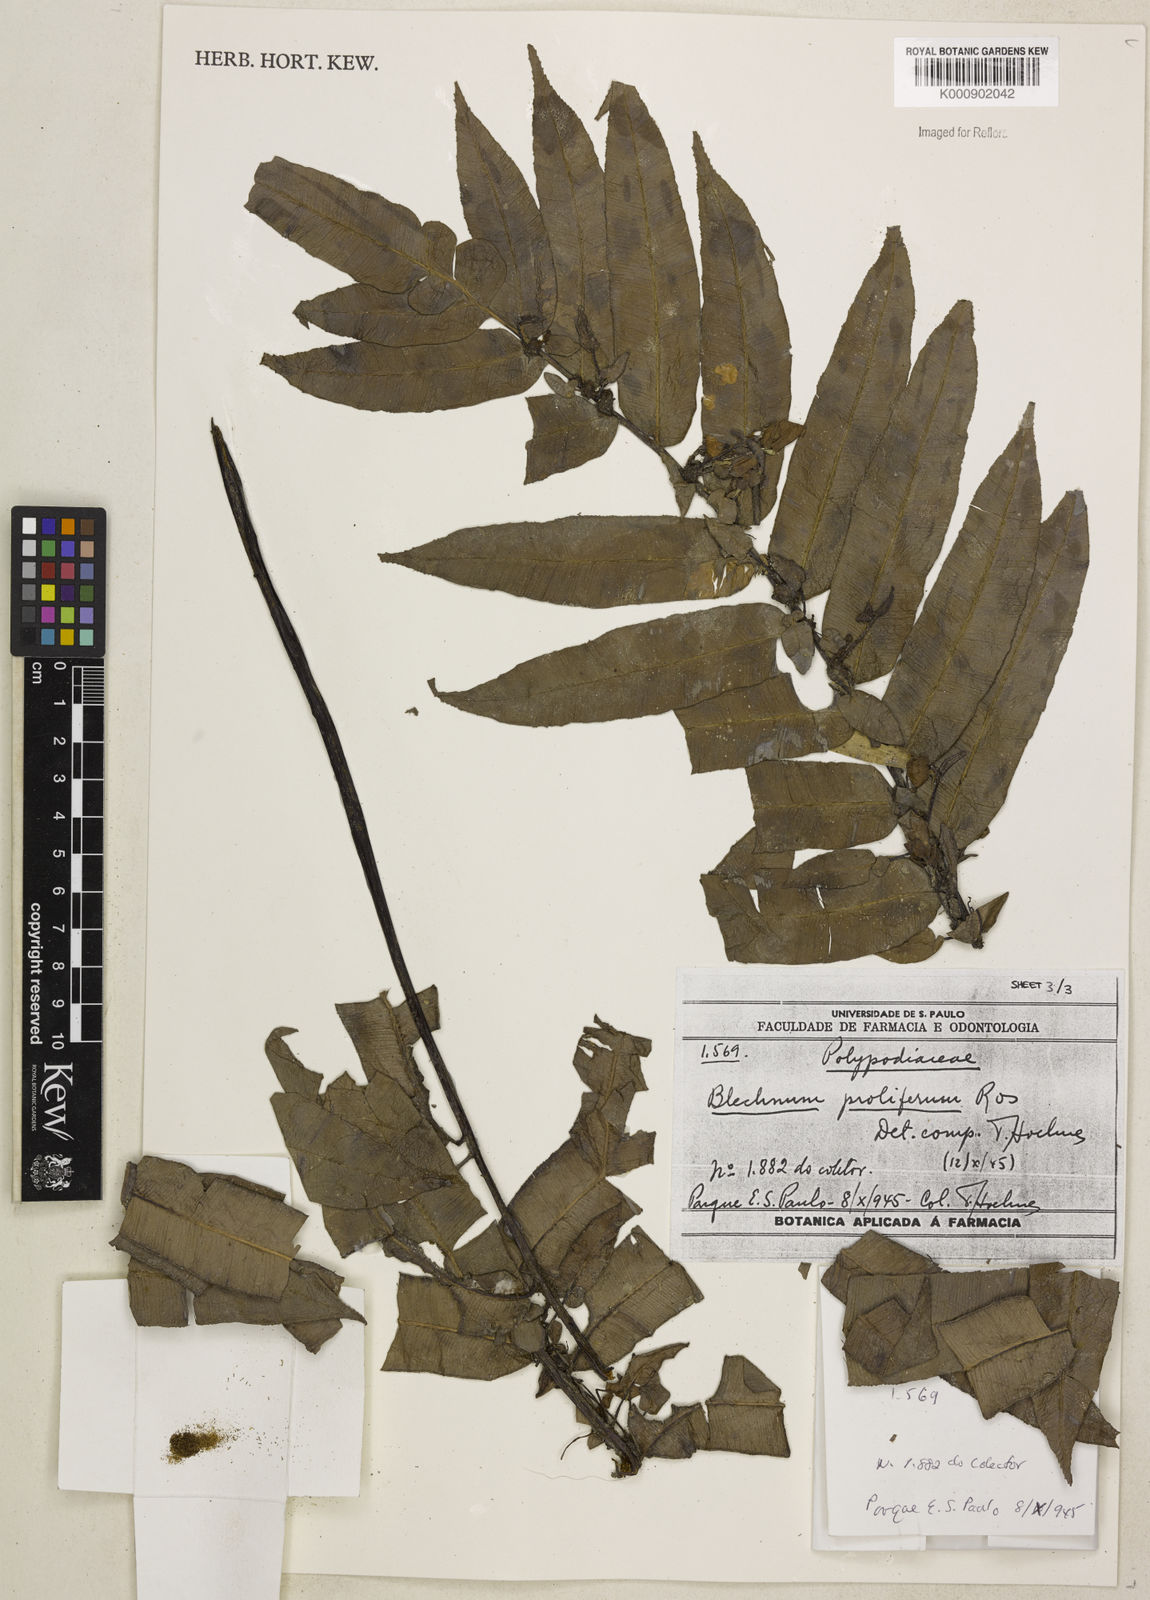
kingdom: Plantae
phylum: Tracheophyta
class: Polypodiopsida
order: Polypodiales
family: Blechnaceae
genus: Parablechnum
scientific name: Parablechnum proliferum
